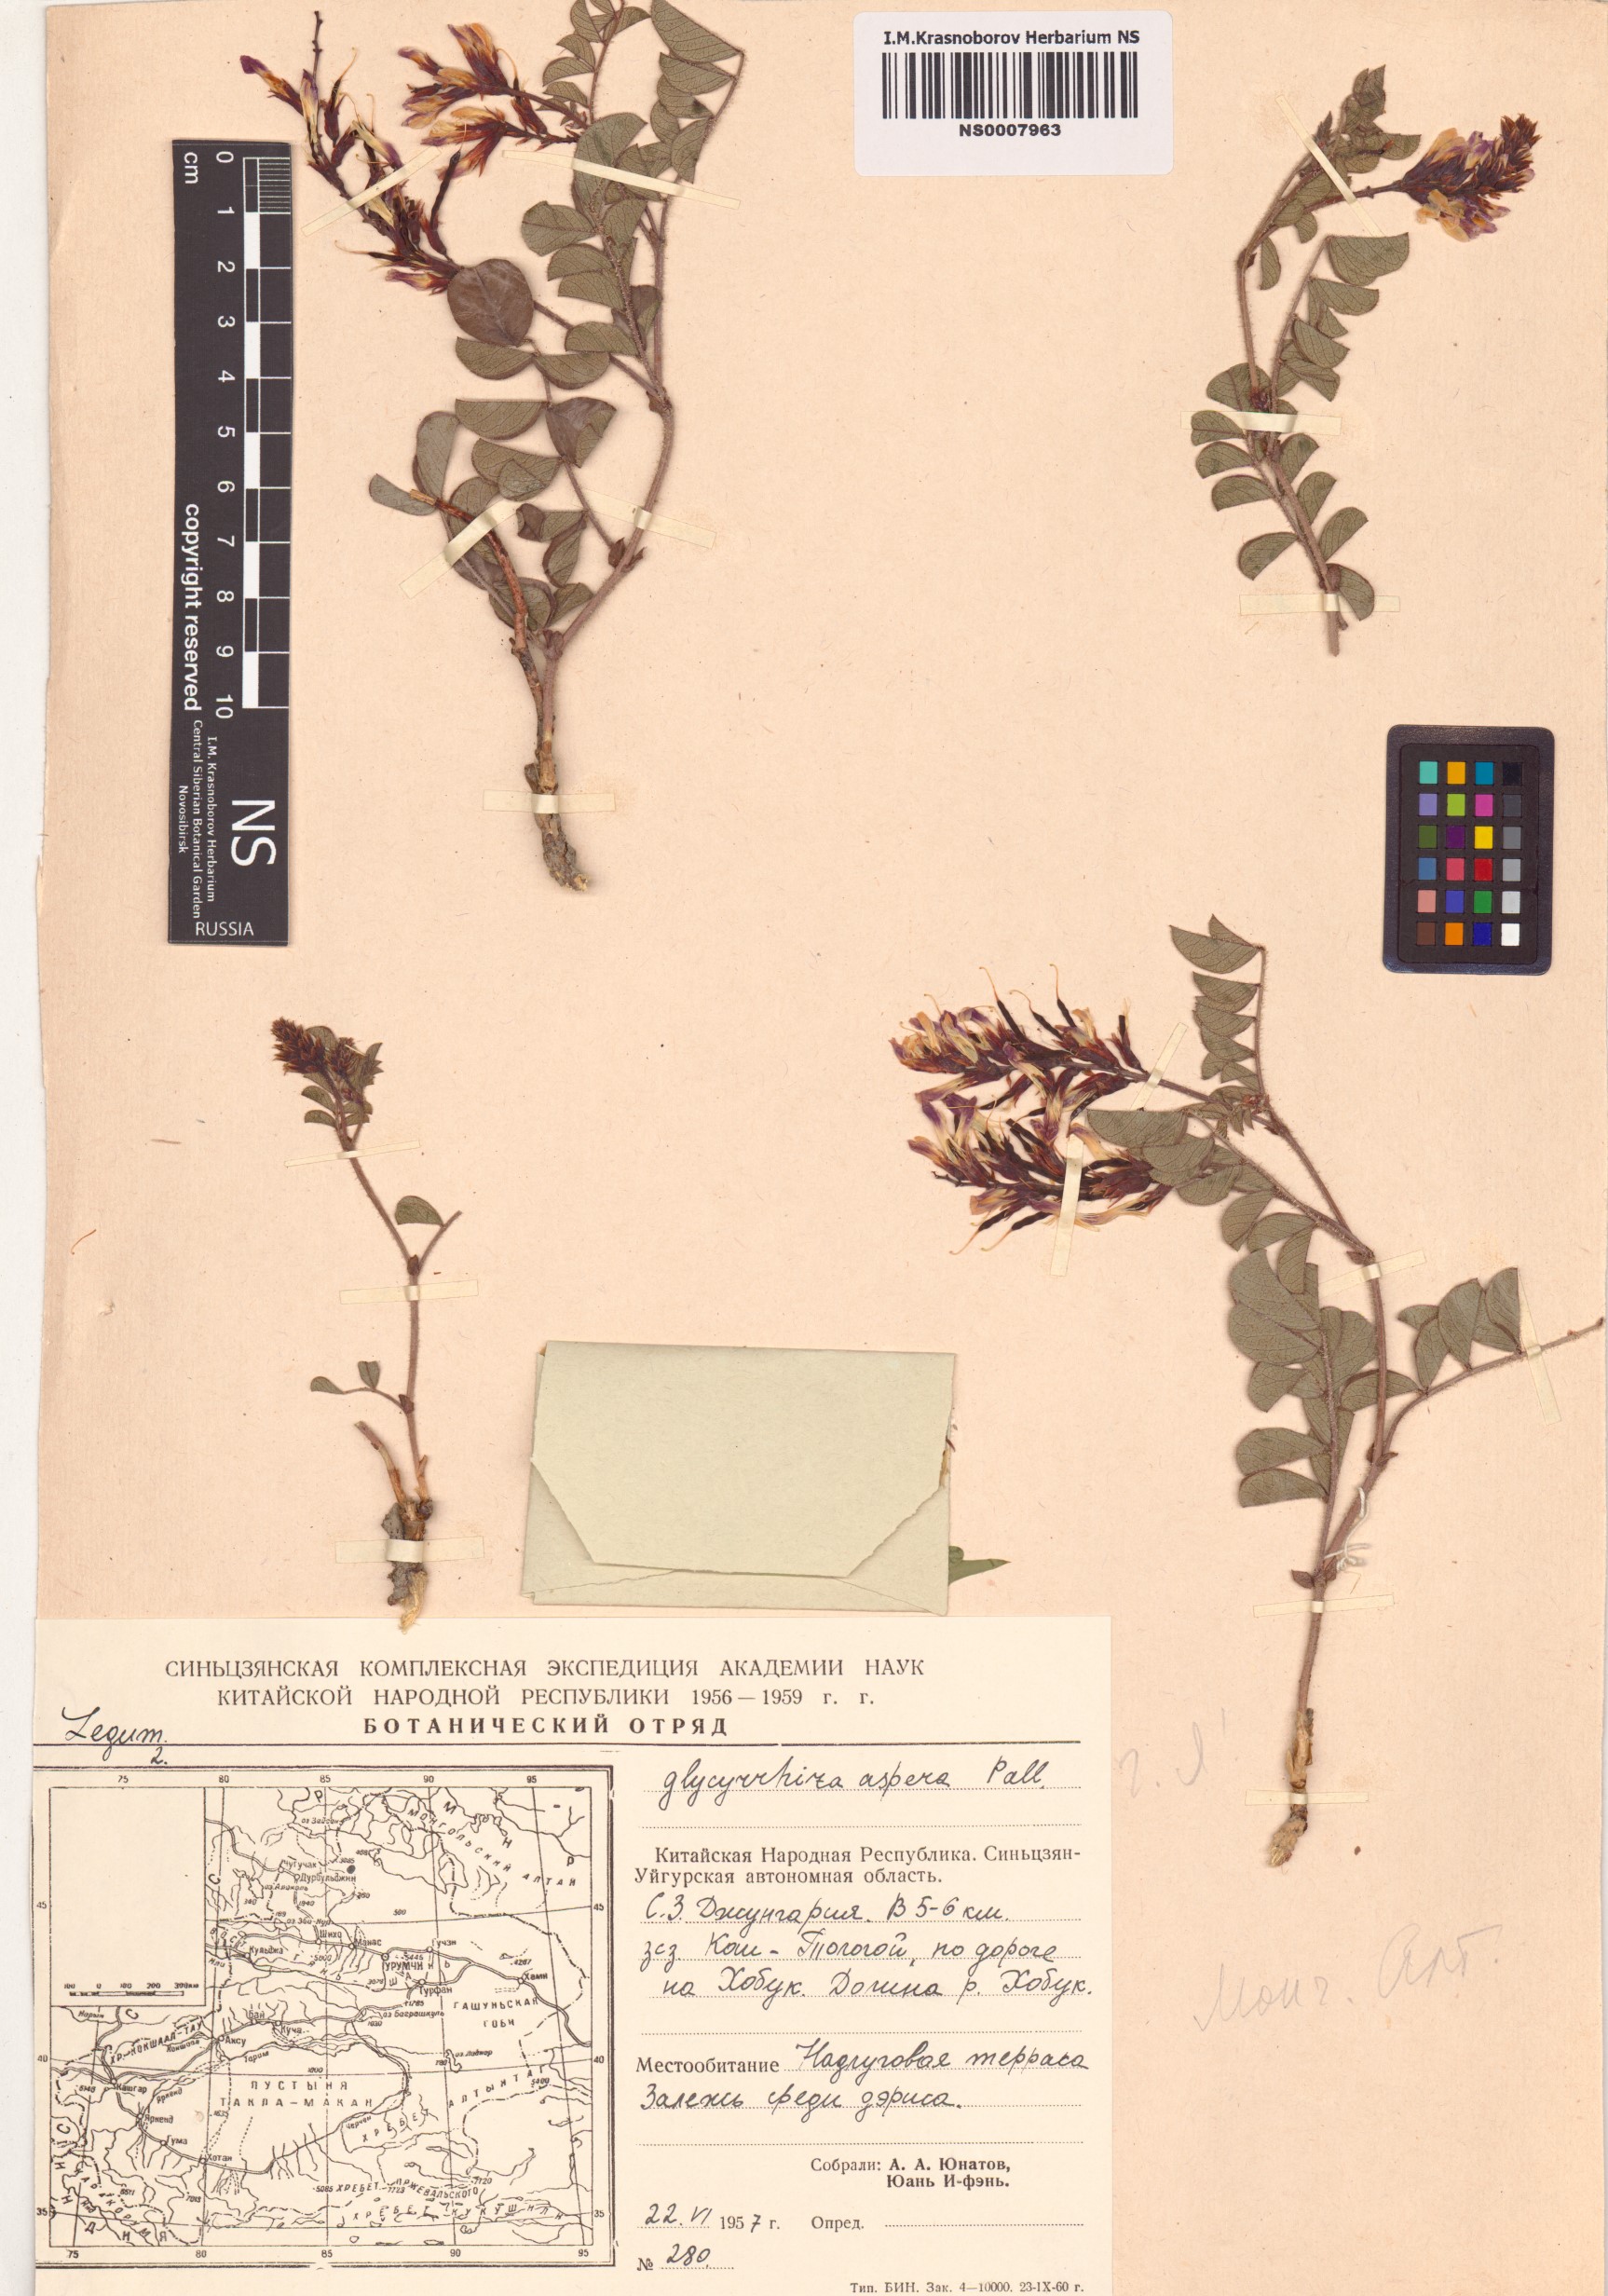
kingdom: Plantae
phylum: Tracheophyta
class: Magnoliopsida
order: Fabales
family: Fabaceae
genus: Glycyrrhiza
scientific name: Glycyrrhiza aspera
